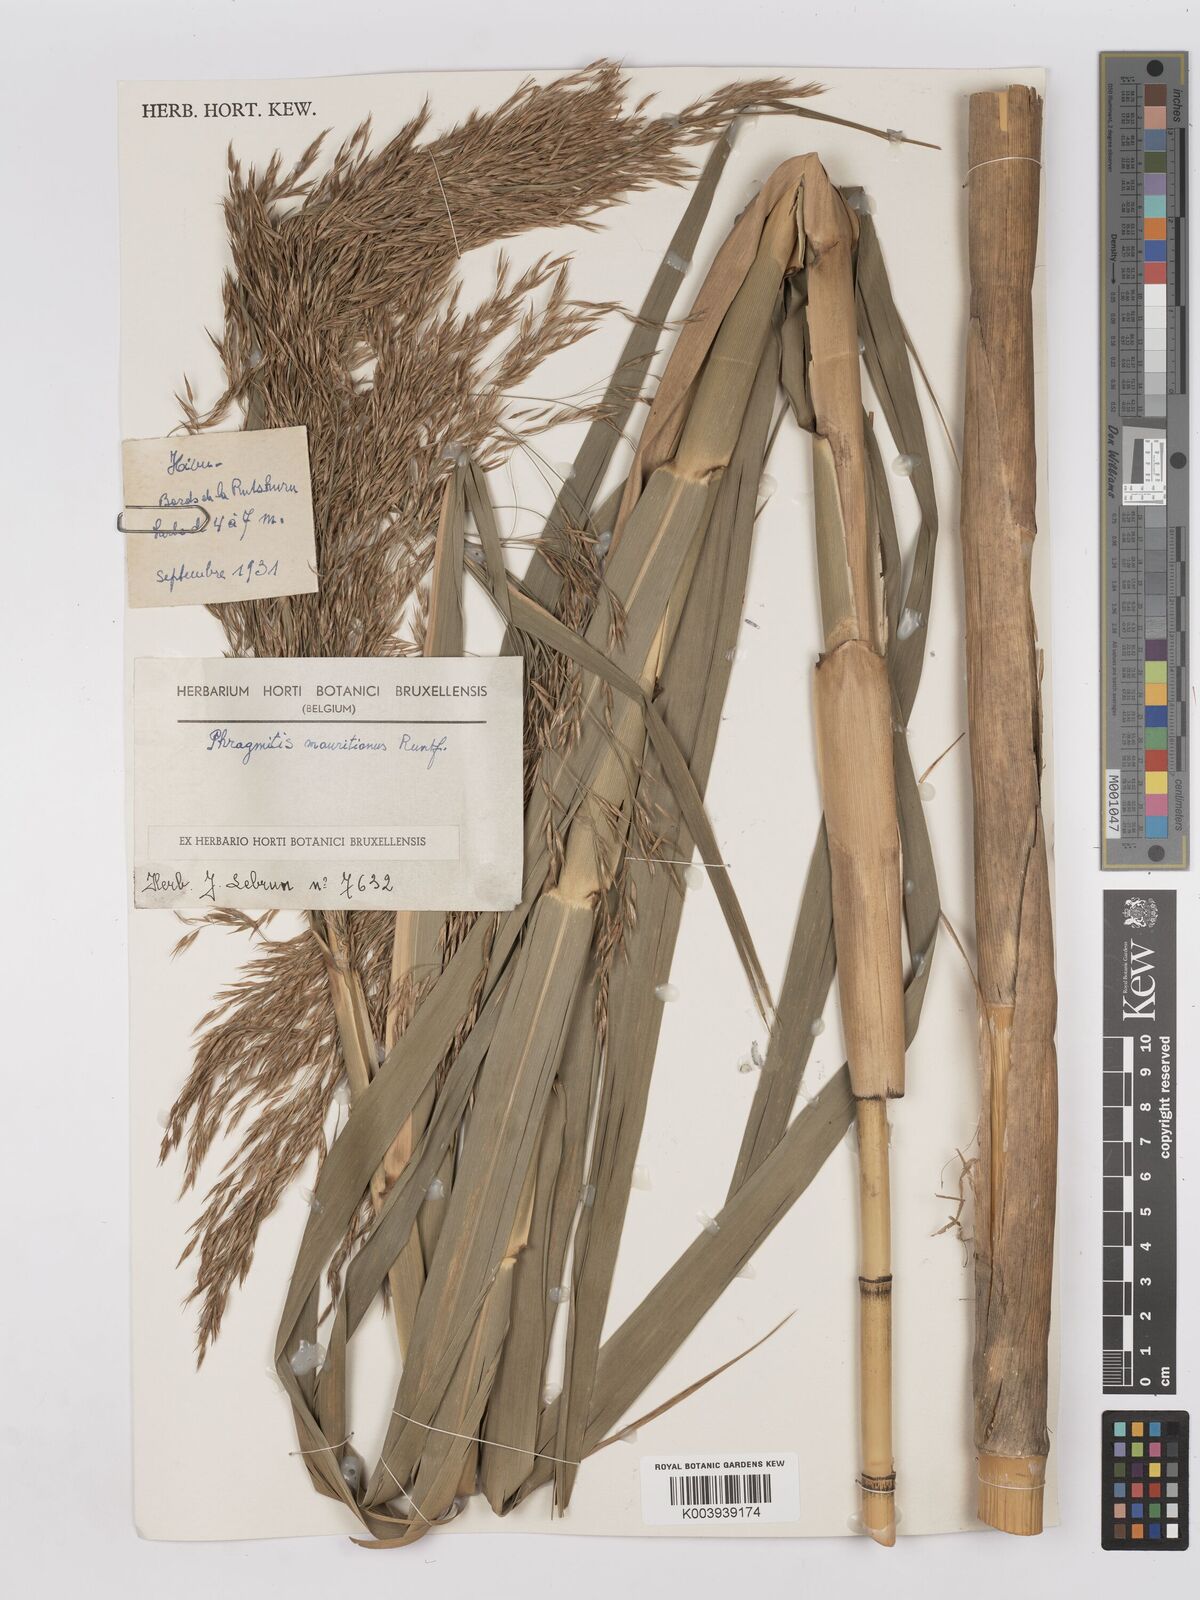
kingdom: Plantae
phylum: Tracheophyta
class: Liliopsida
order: Poales
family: Poaceae
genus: Phragmites
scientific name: Phragmites mauritianus
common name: Reed grass
